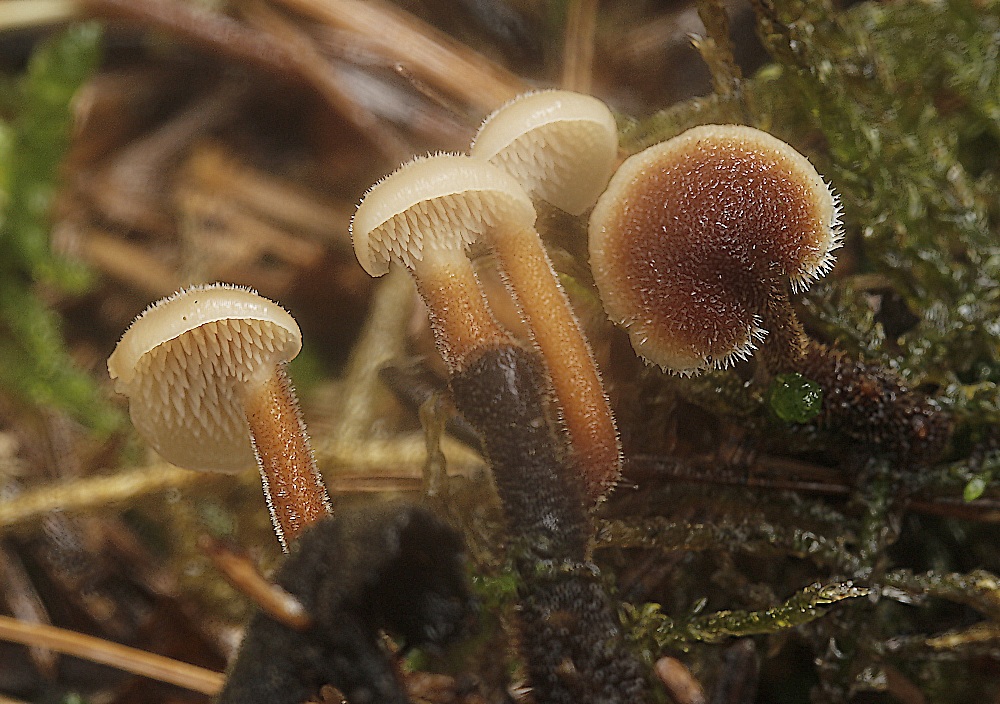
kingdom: Fungi
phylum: Basidiomycota
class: Agaricomycetes
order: Russulales
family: Auriscalpiaceae
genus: Auriscalpium
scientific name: Auriscalpium vulgare
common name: koglepigsvamp
